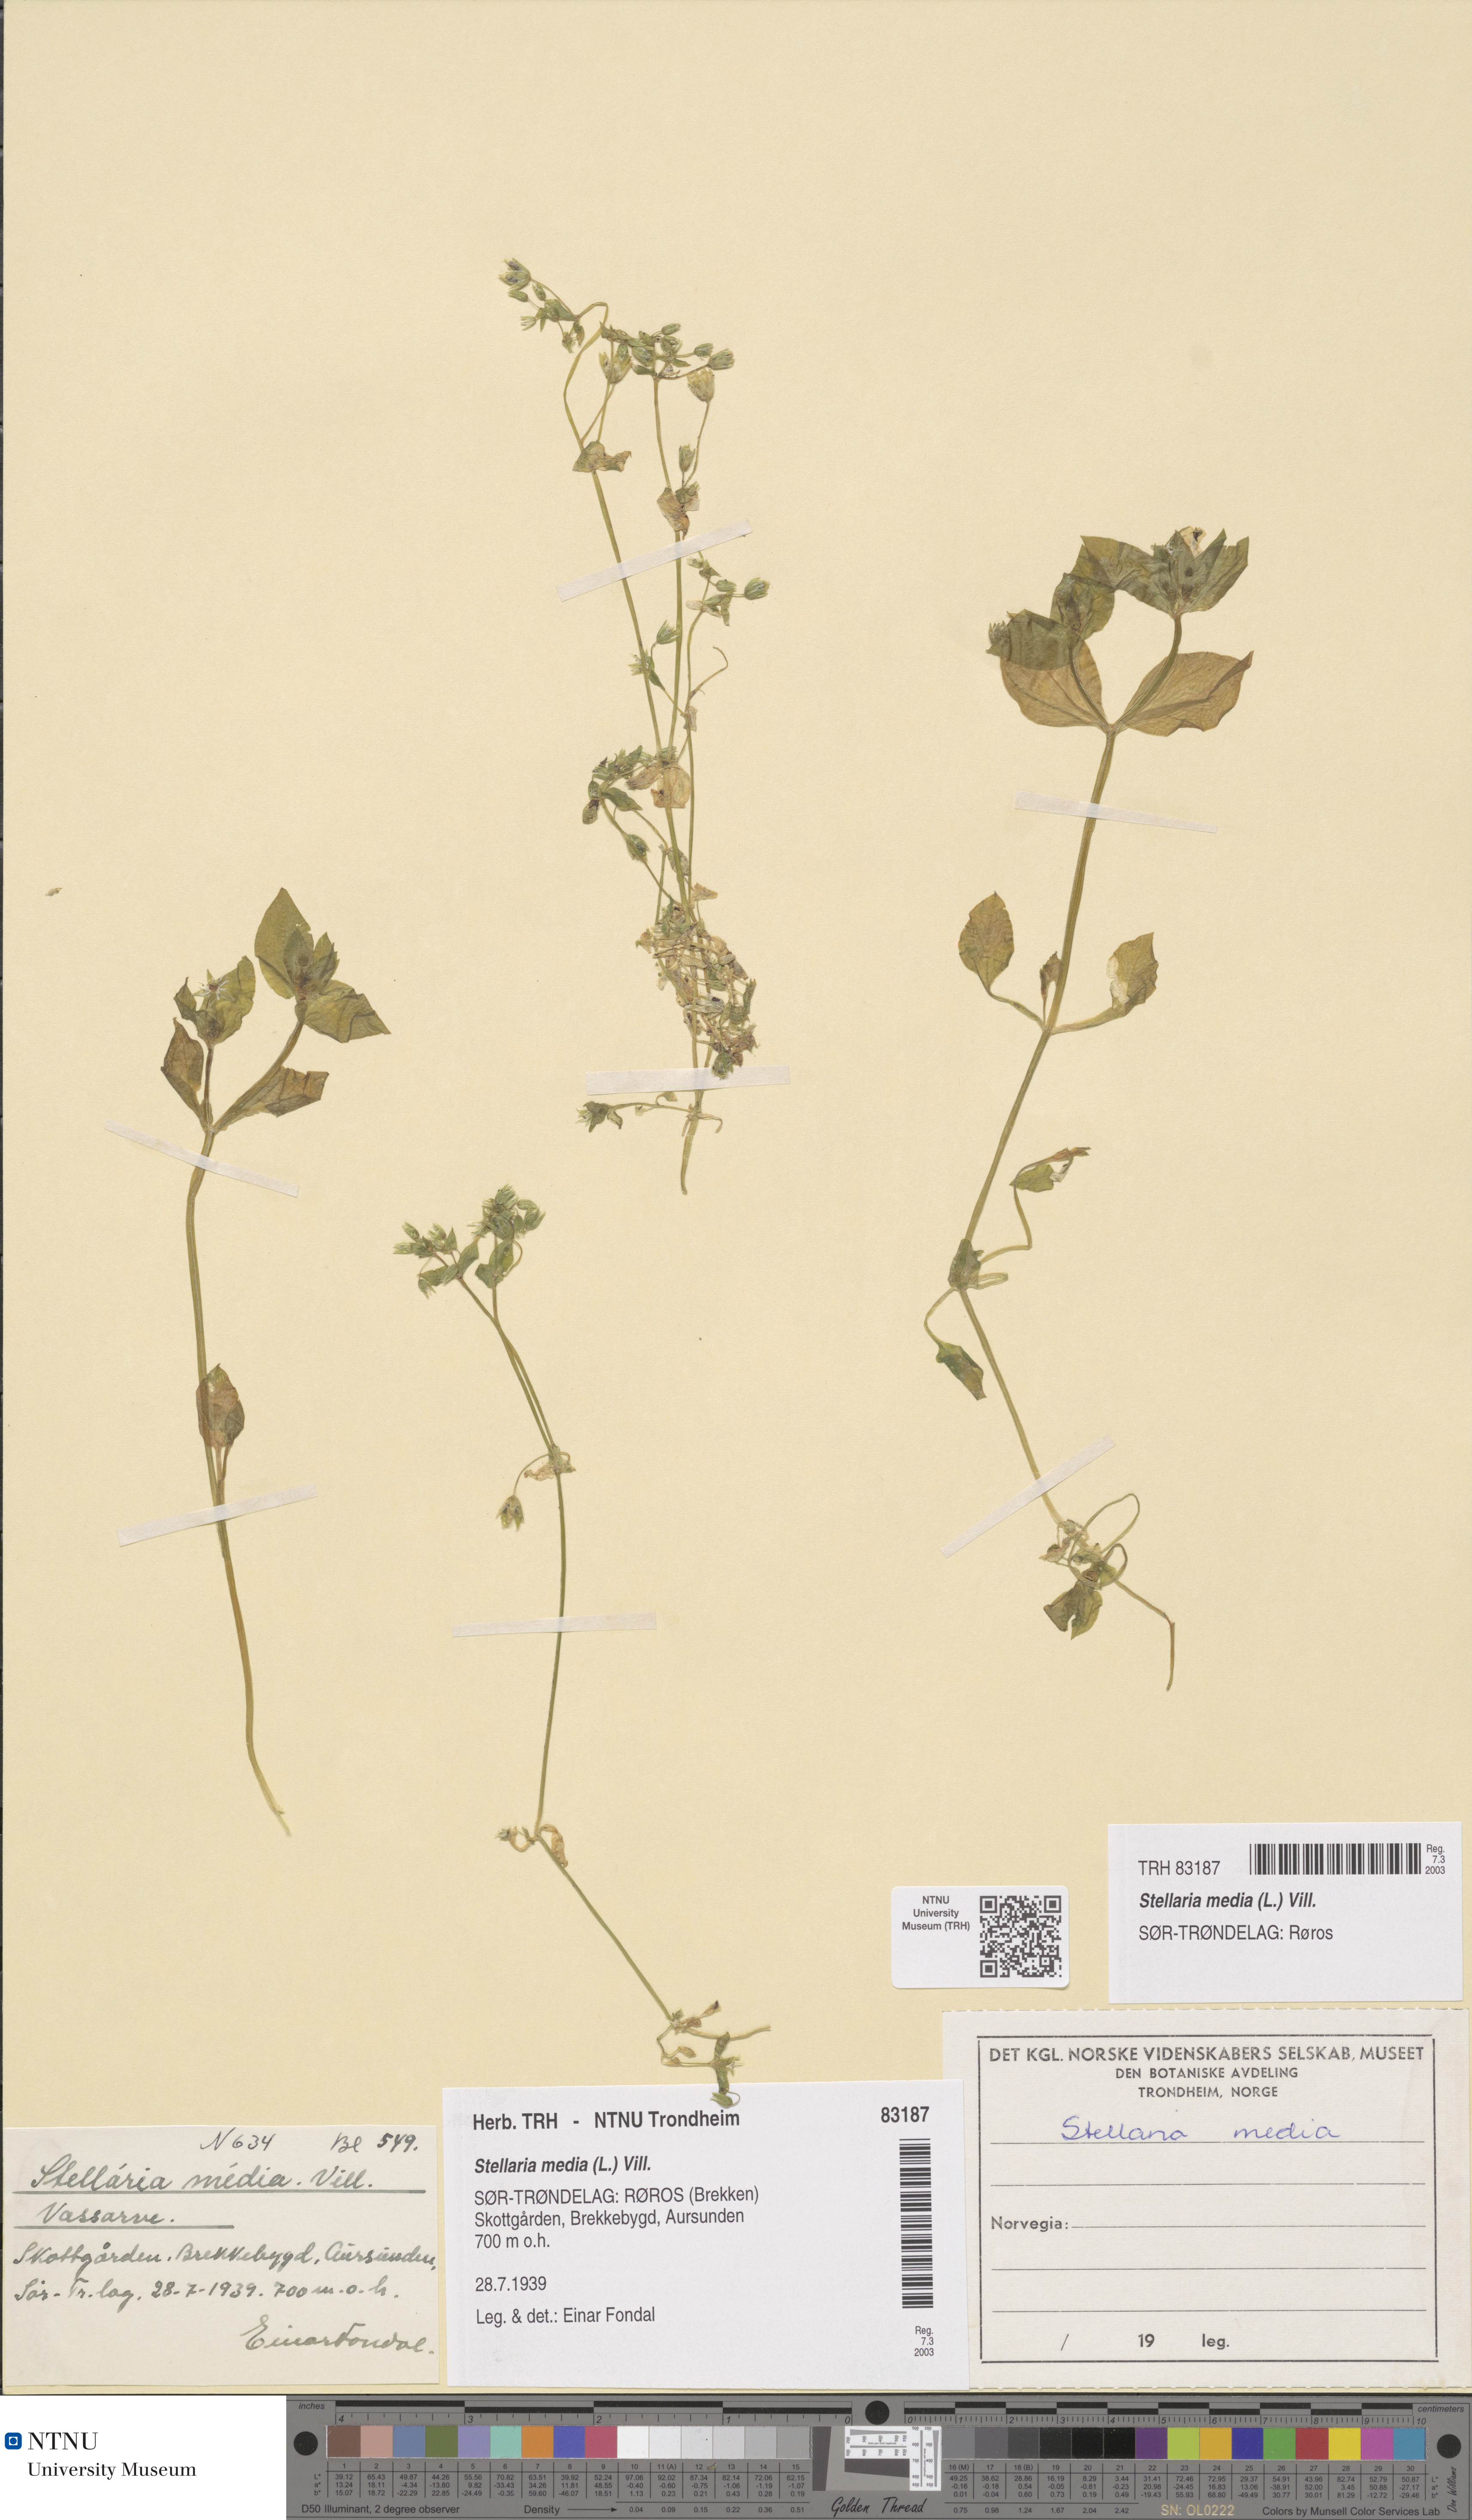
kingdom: Plantae
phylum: Tracheophyta
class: Magnoliopsida
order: Caryophyllales
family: Caryophyllaceae
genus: Stellaria
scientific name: Stellaria media
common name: Common chickweed
